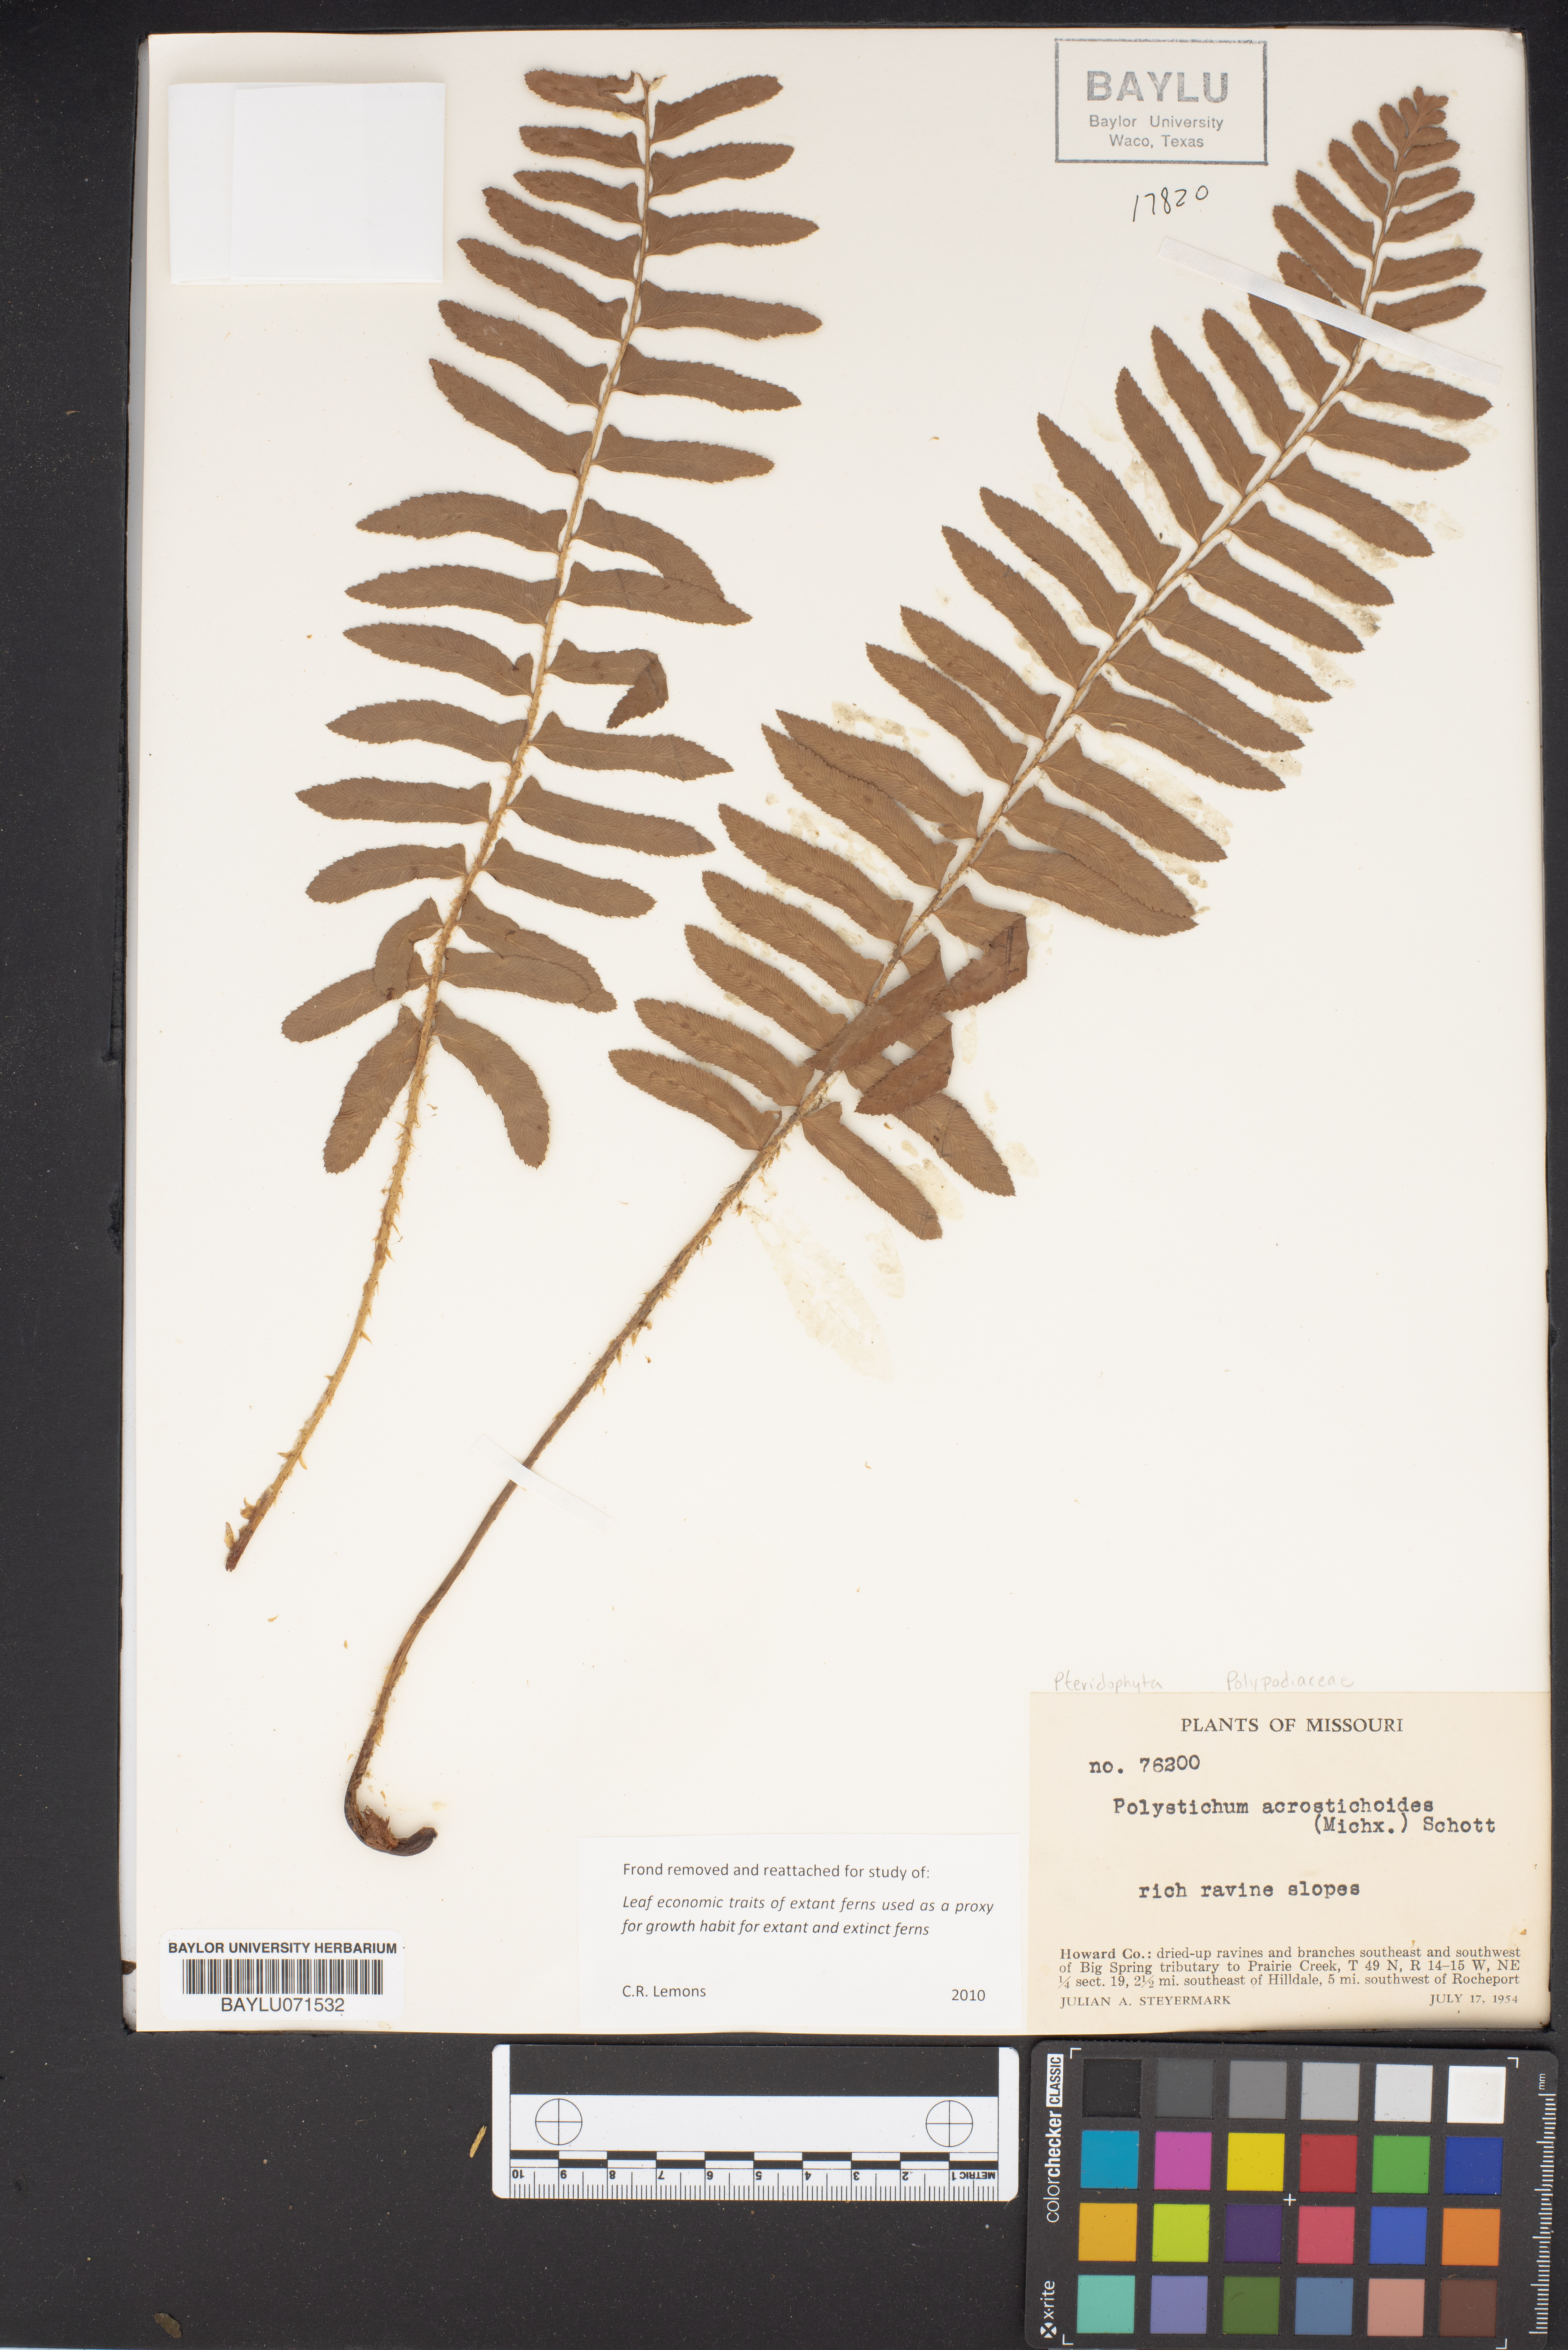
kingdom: Plantae
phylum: Tracheophyta
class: Polypodiopsida
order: Polypodiales
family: Dryopteridaceae
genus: Polystichum
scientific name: Polystichum acrostichoides
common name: Christmas fern
